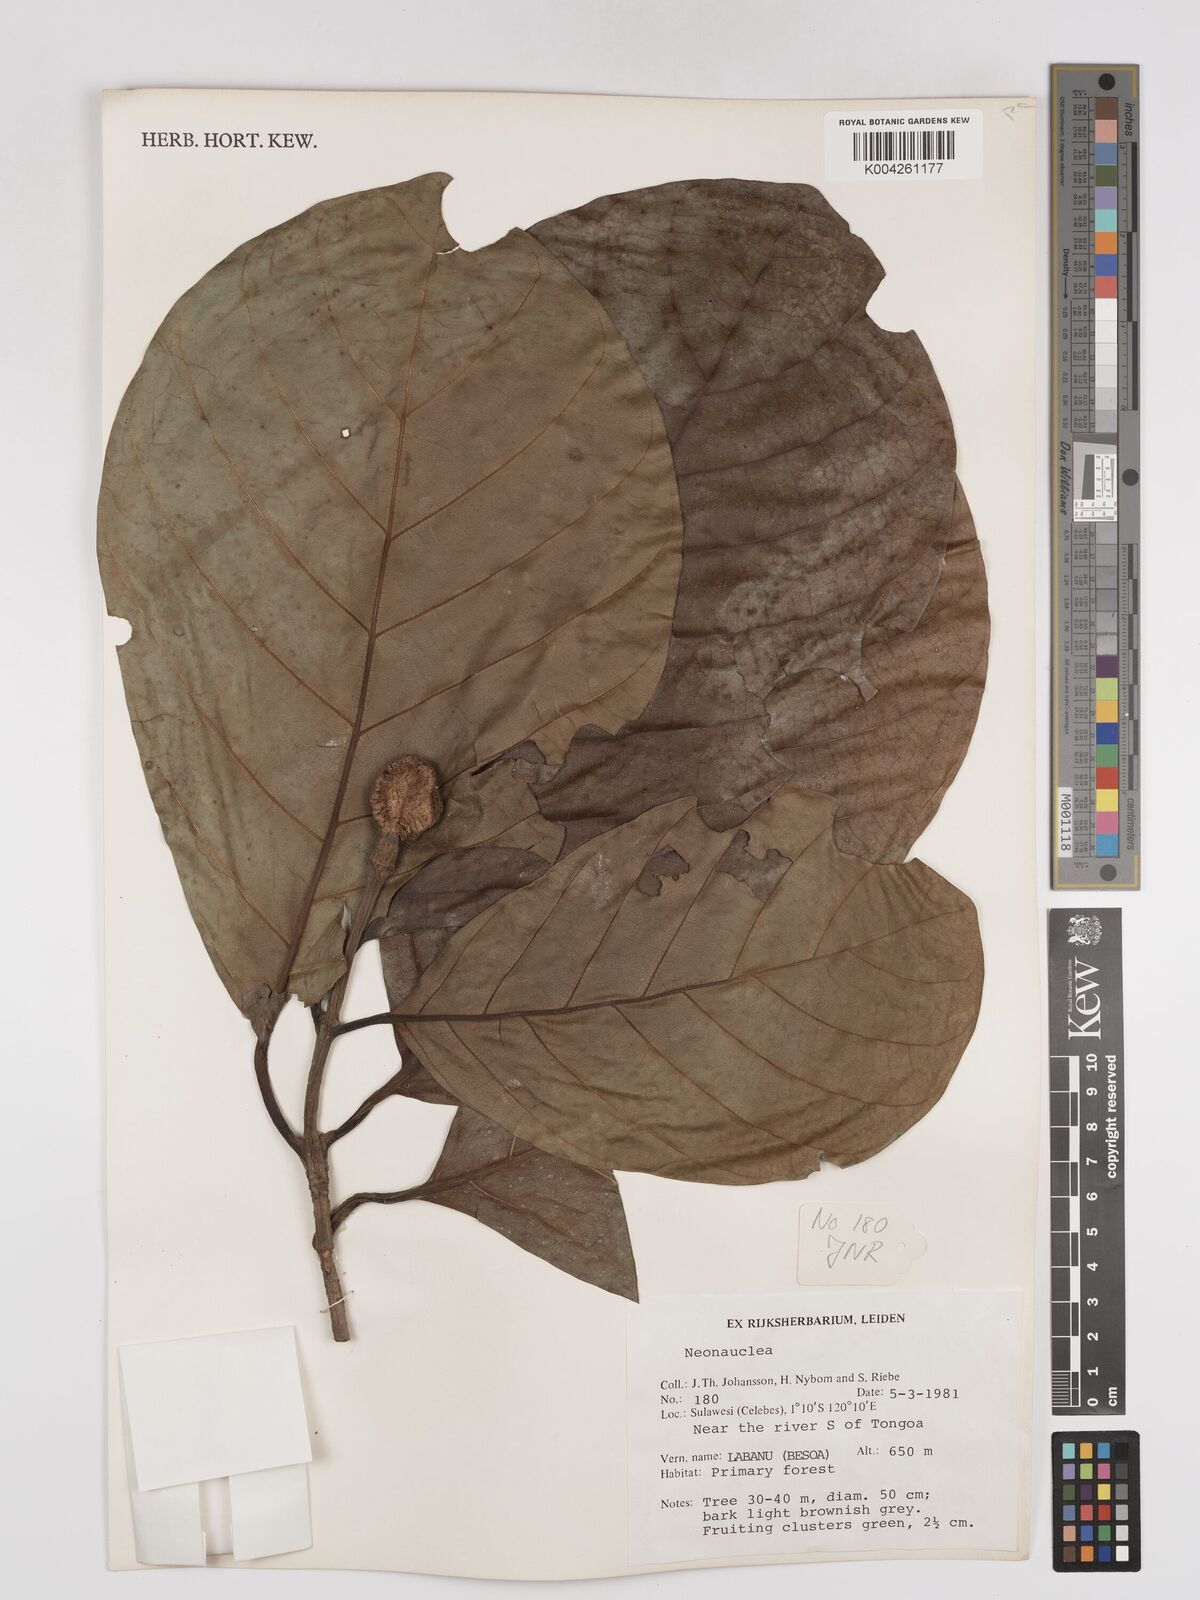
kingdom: Plantae
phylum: Tracheophyta
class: Magnoliopsida
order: Gentianales
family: Rubiaceae
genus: Neonauclea
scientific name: Neonauclea
